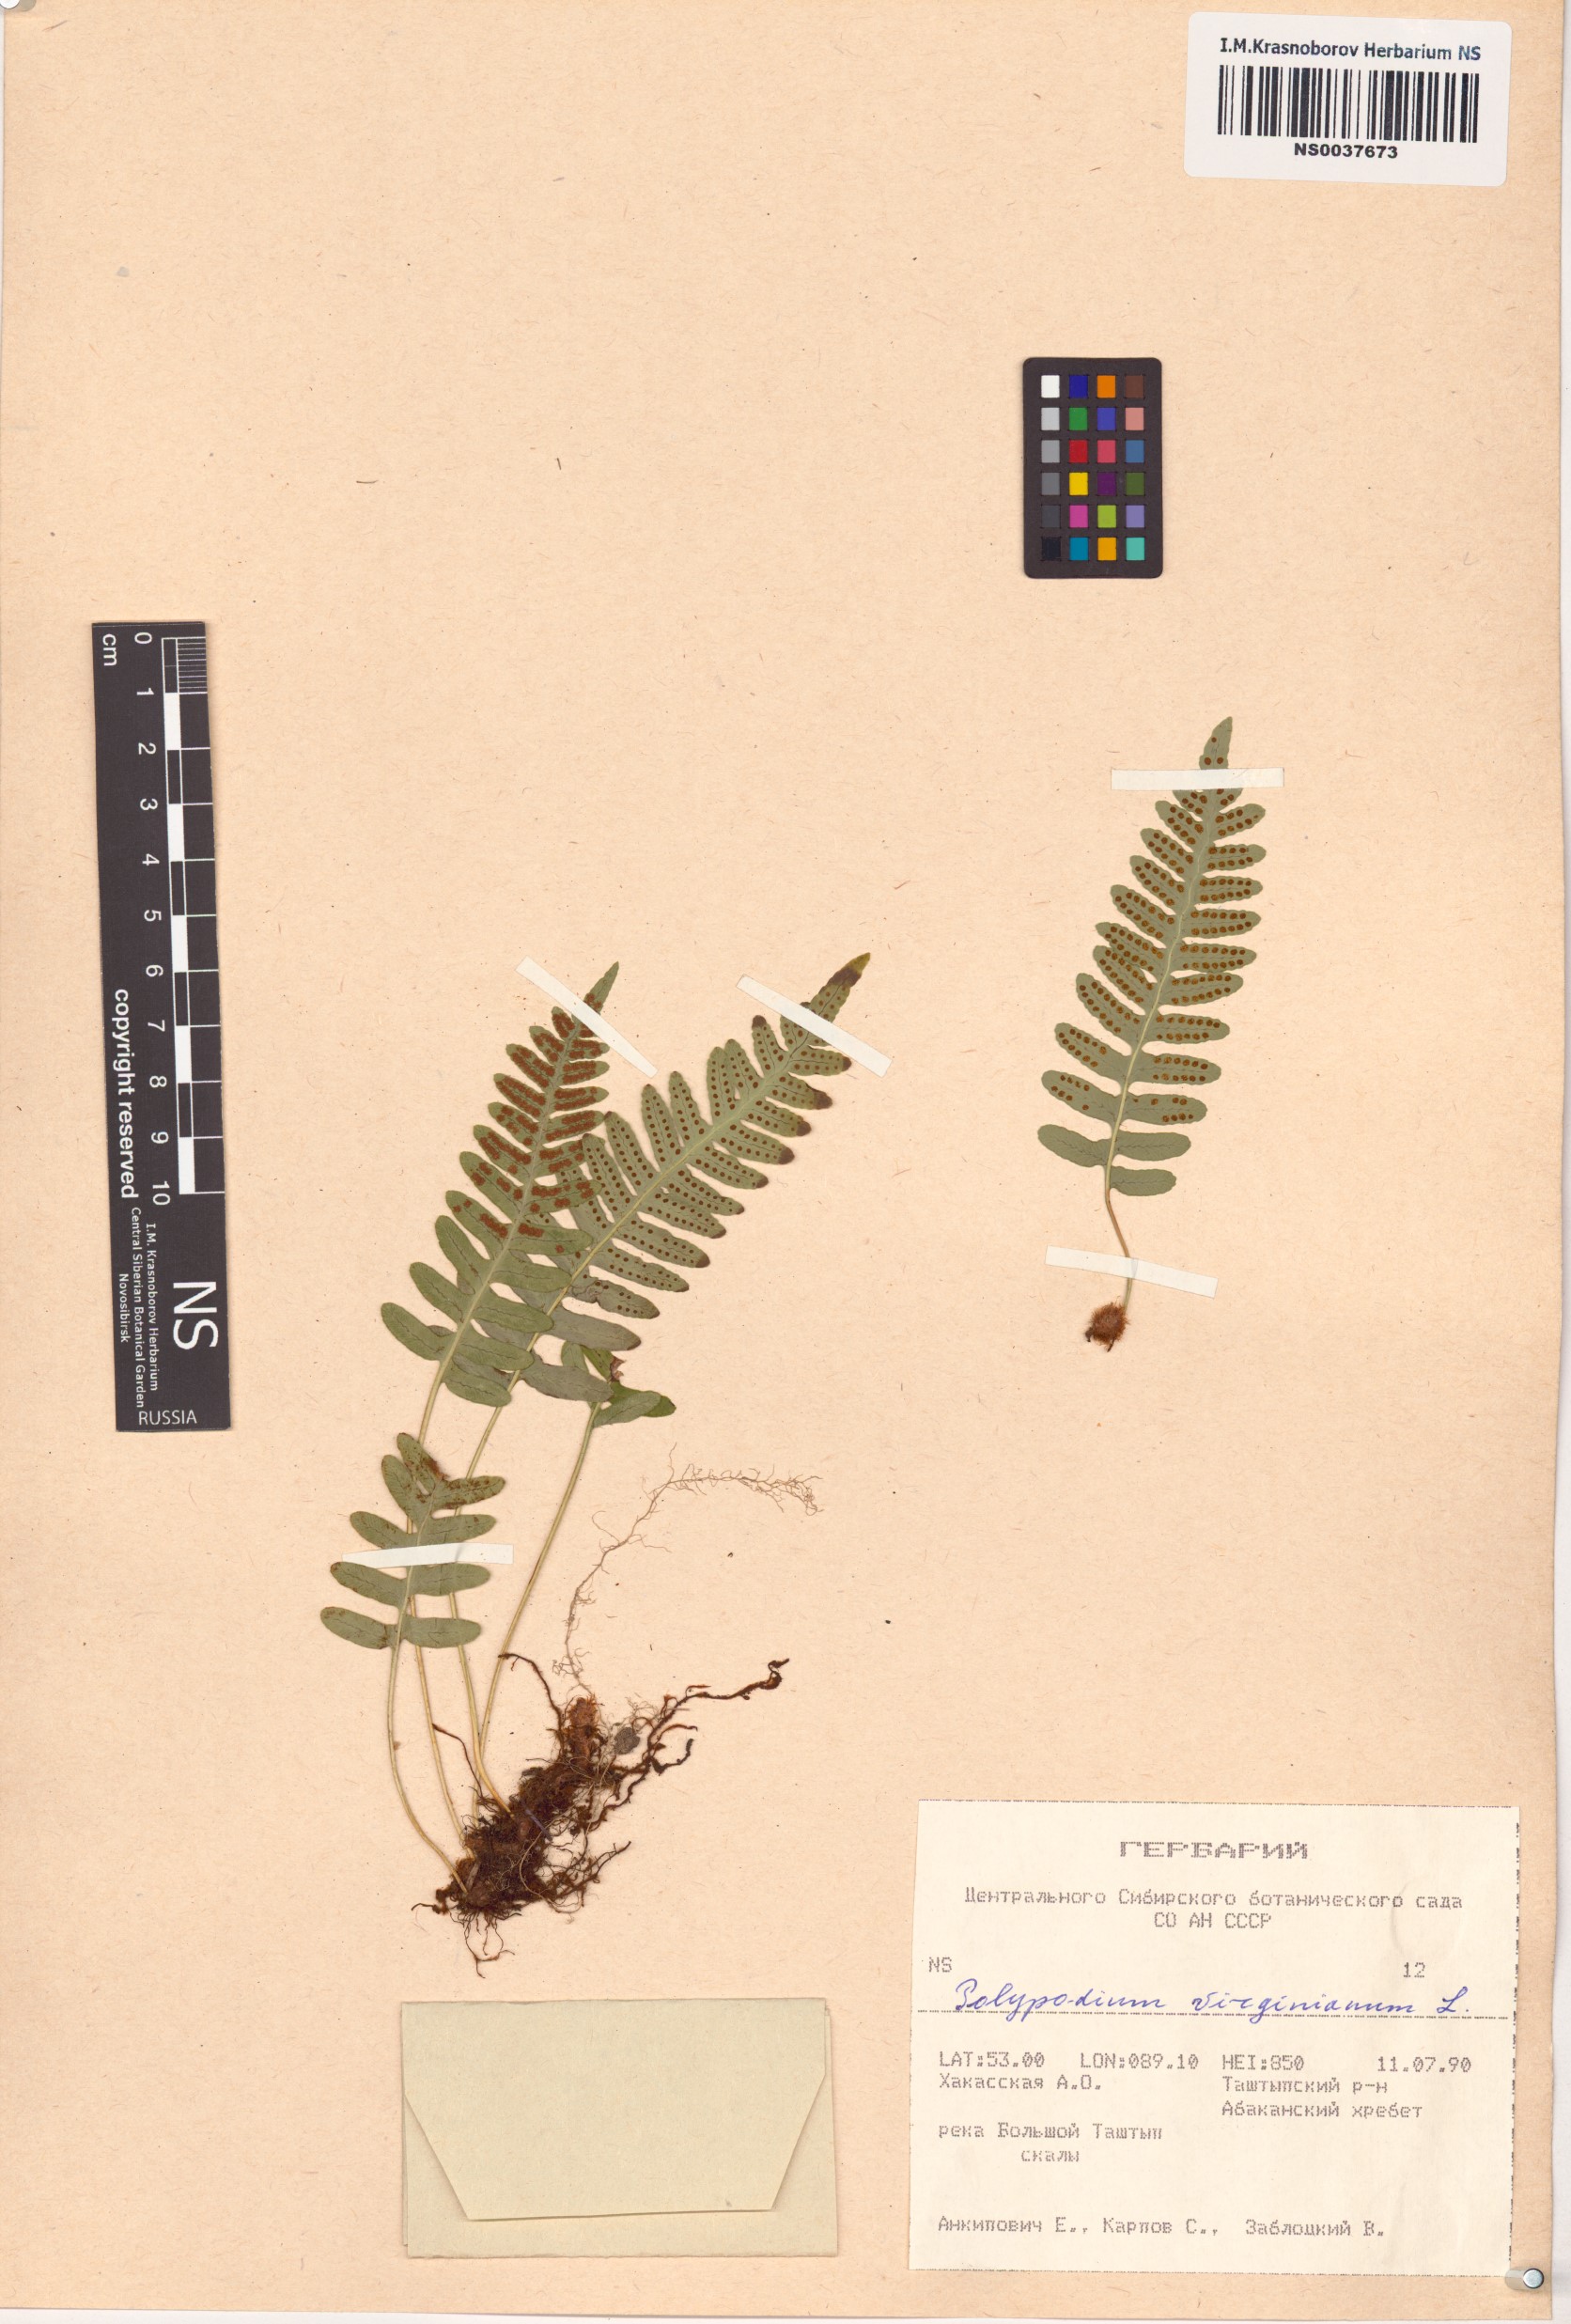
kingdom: Plantae
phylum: Tracheophyta
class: Polypodiopsida
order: Polypodiales
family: Polypodiaceae
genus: Polypodium
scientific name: Polypodium virginianum
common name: American wall fern
